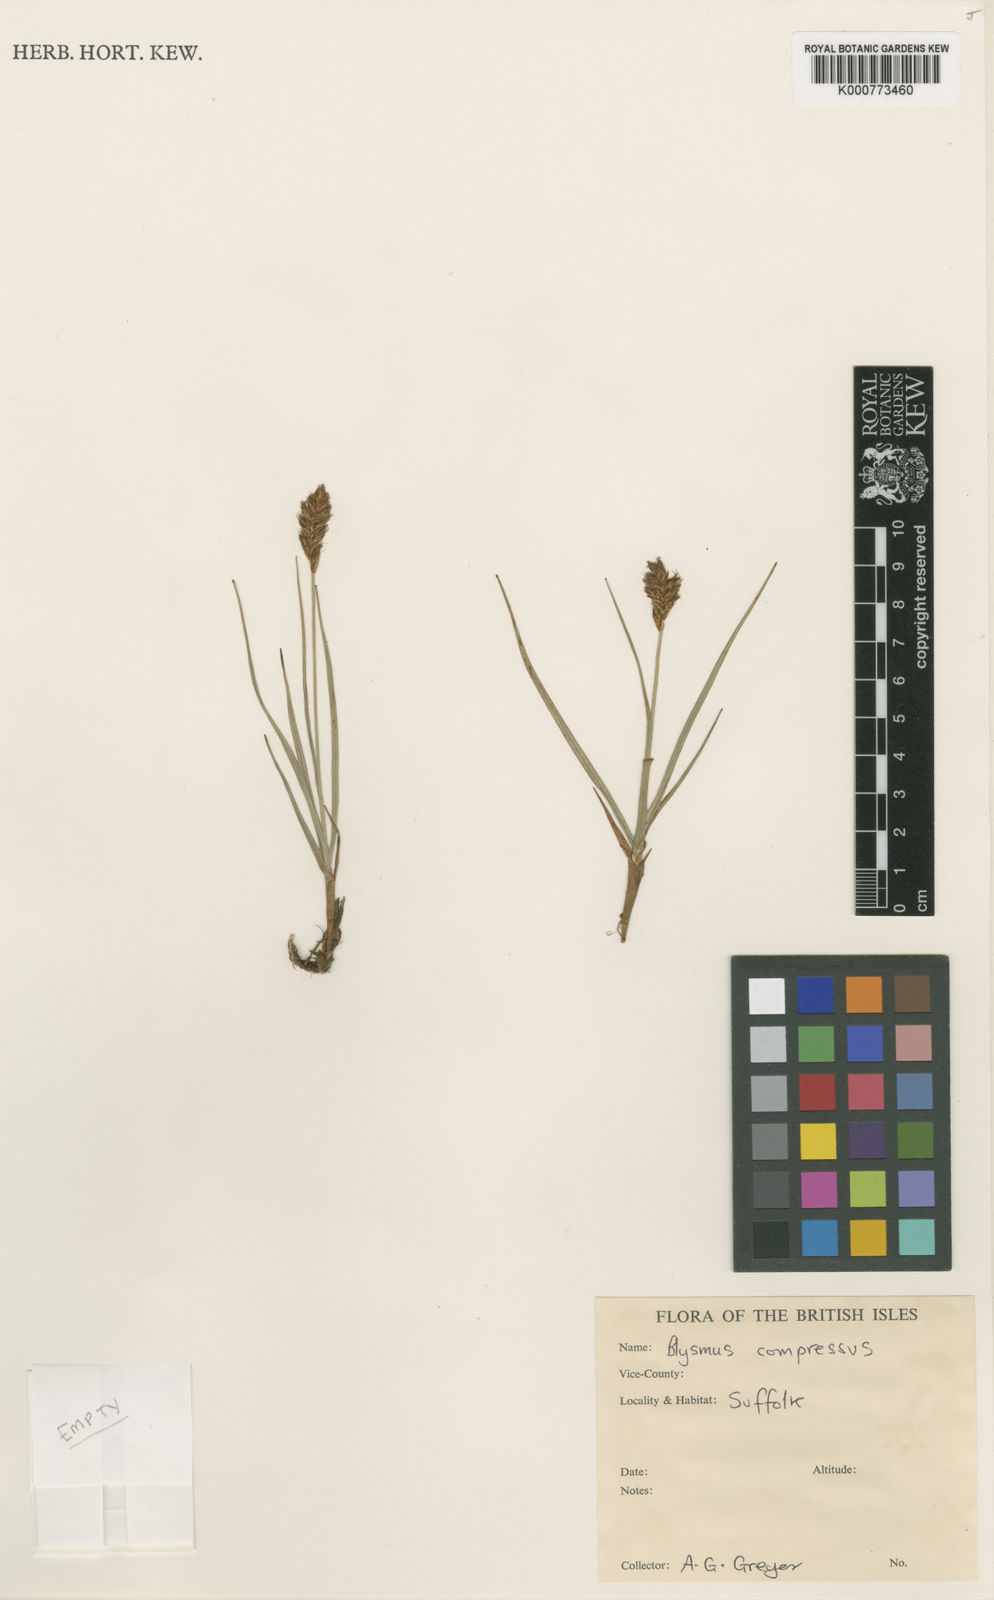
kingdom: Plantae
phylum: Tracheophyta
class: Liliopsida
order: Poales
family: Cyperaceae
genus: Blysmus
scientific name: Blysmus compressus
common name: Flat-sedge
